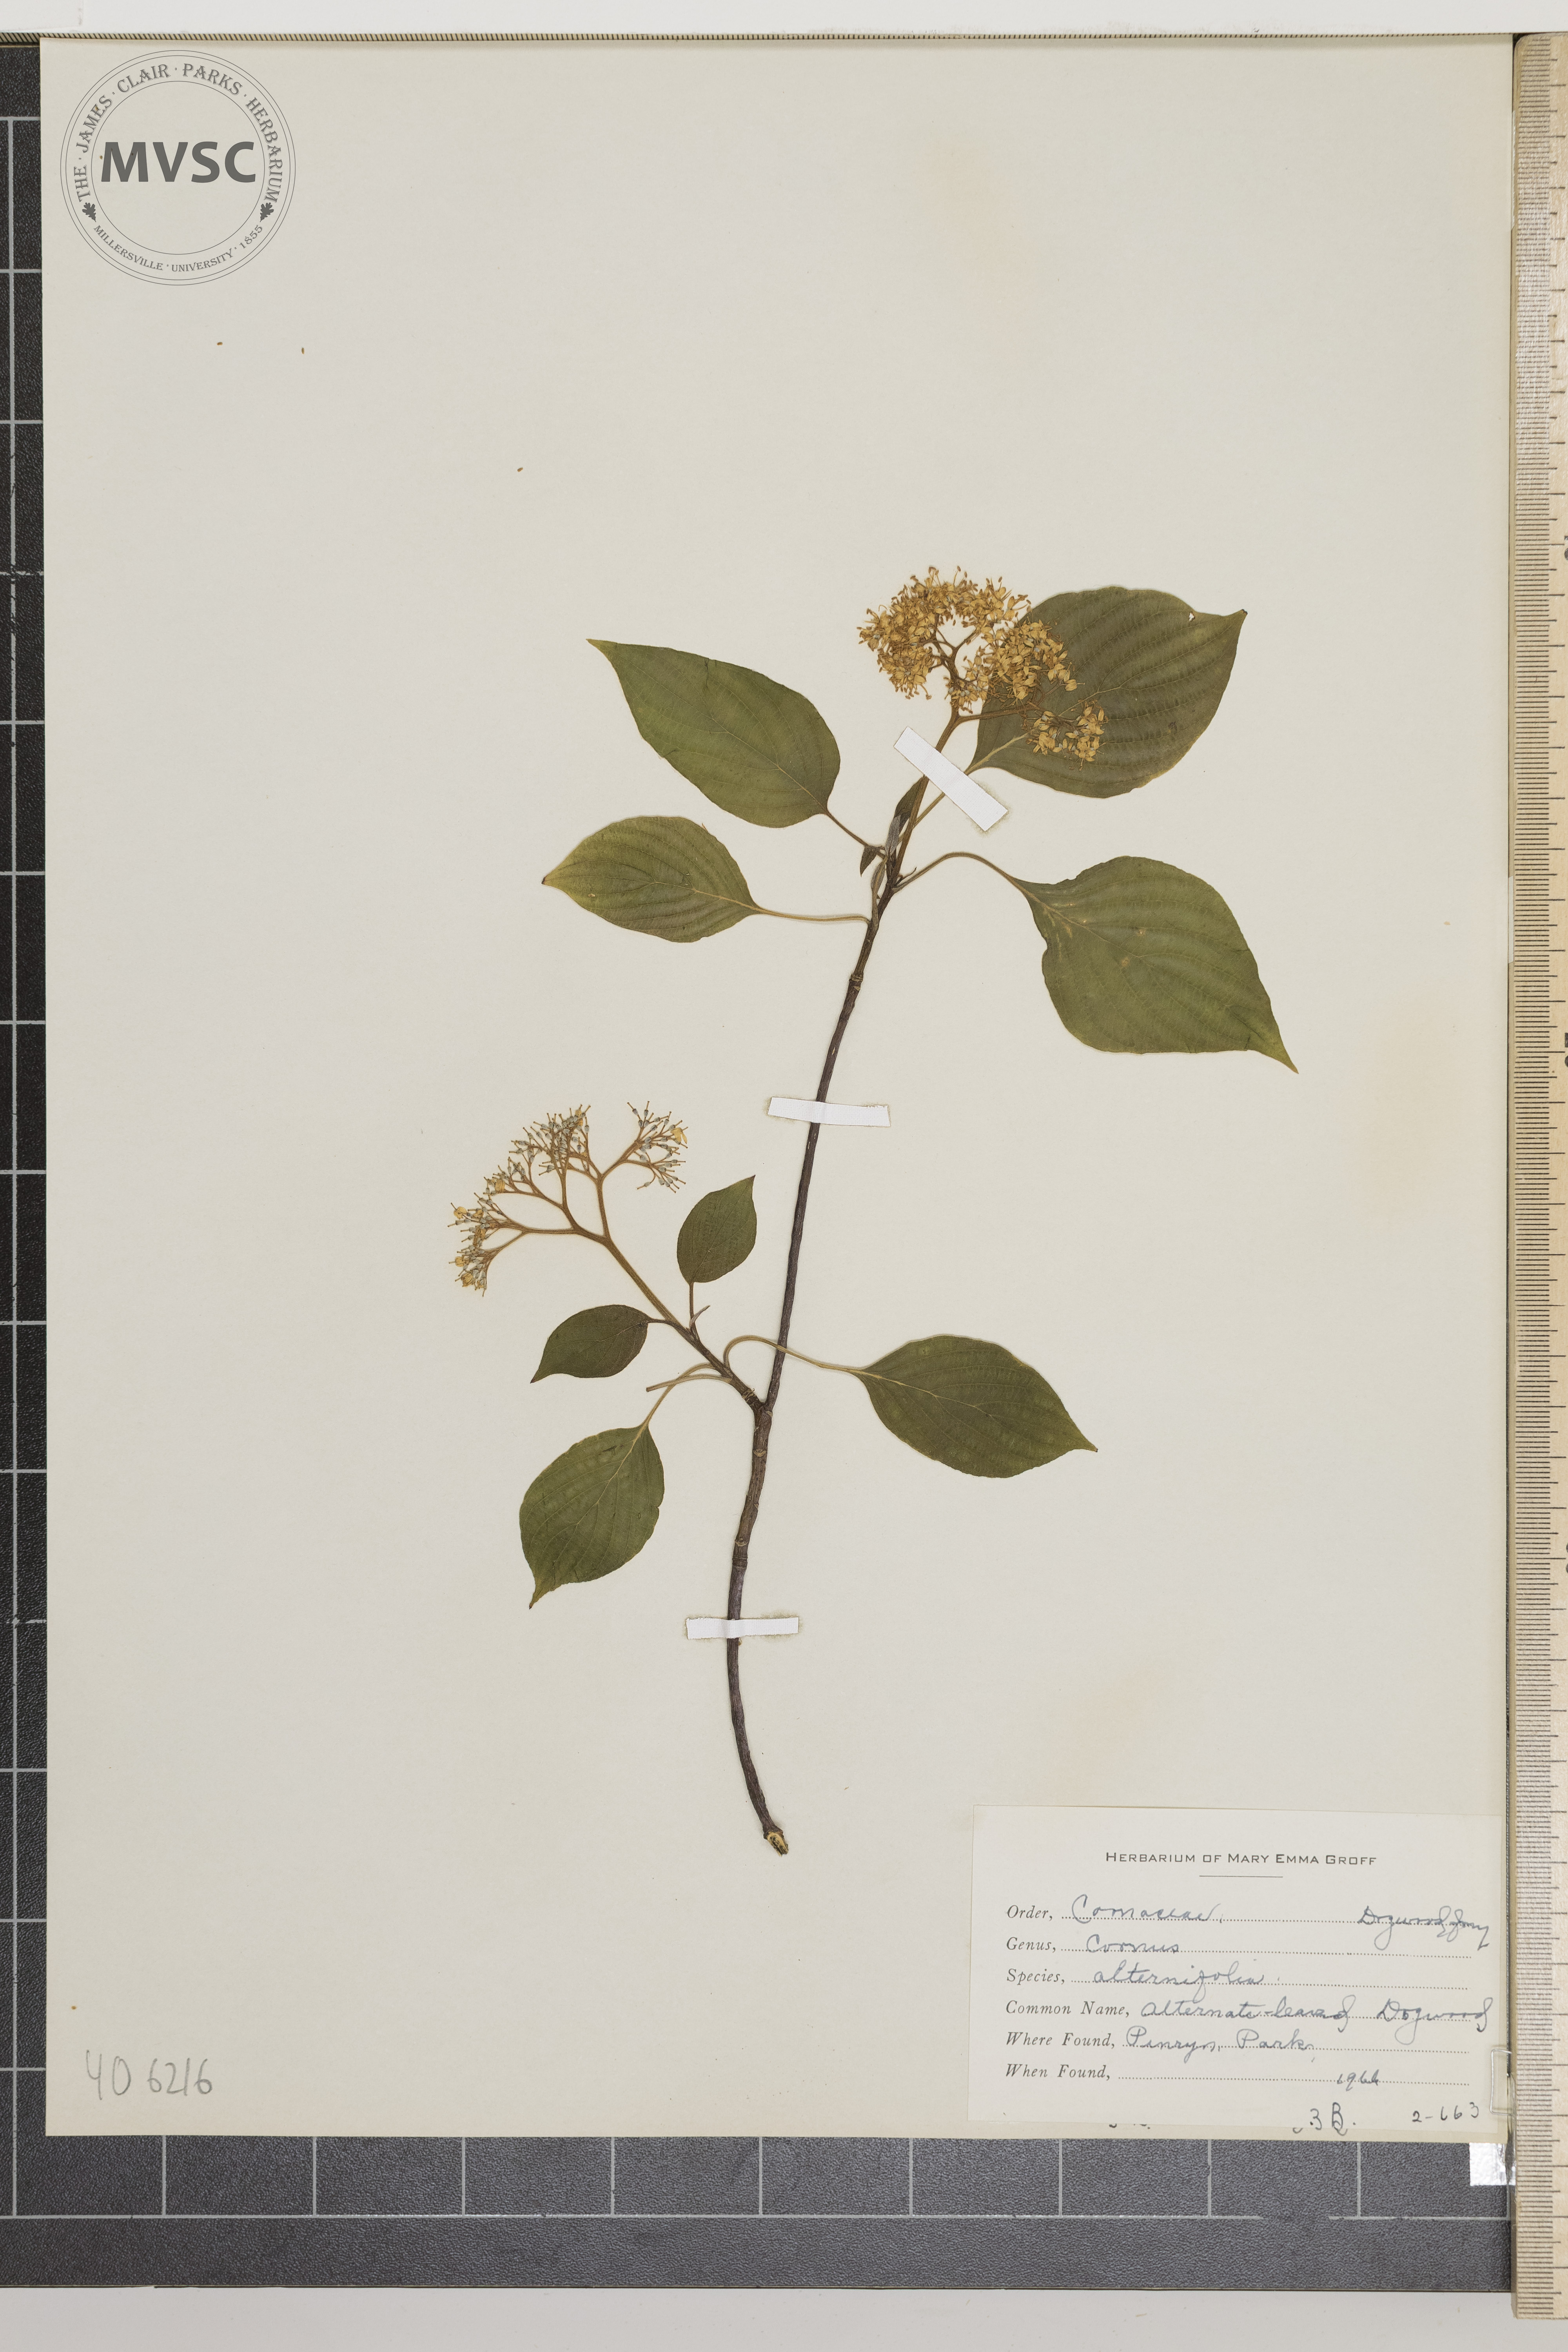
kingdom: Plantae
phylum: Tracheophyta
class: Magnoliopsida
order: Cornales
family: Cornaceae
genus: Cornus
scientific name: Cornus alternifolia
